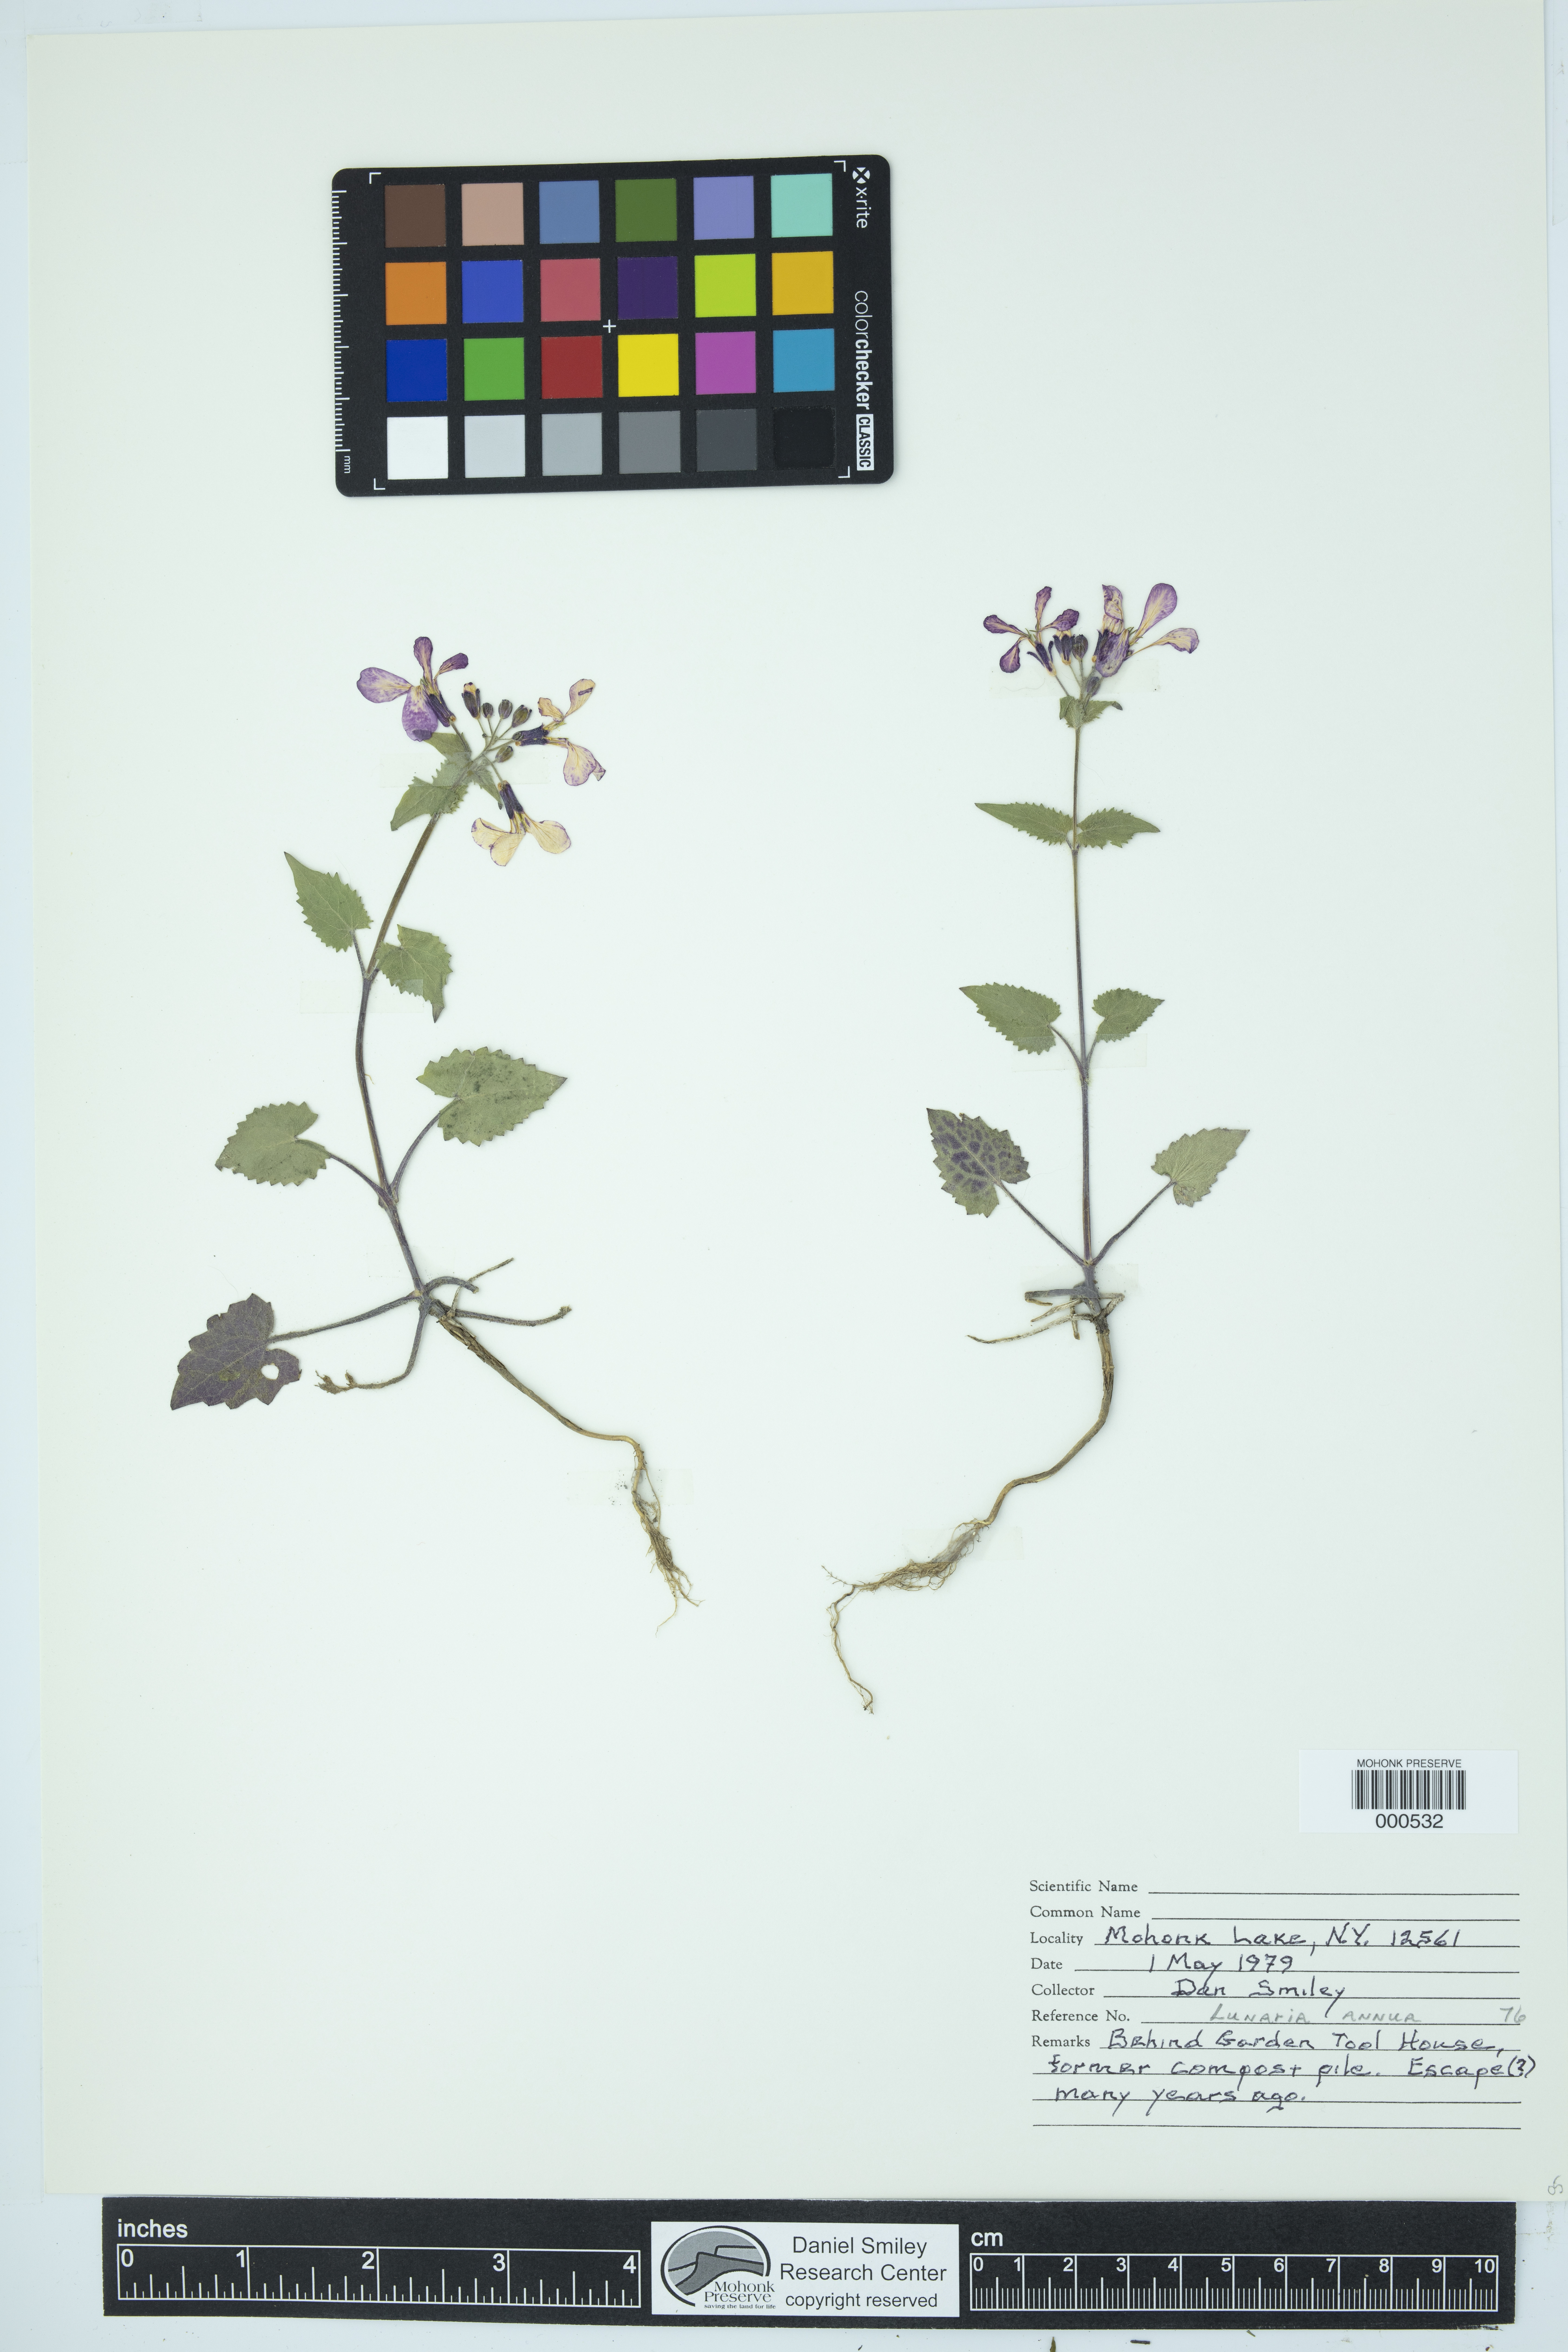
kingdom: Plantae
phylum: Tracheophyta
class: Magnoliopsida
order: Brassicales
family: Brassicaceae
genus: Lunaria
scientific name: Lunaria annua
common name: Honesty
